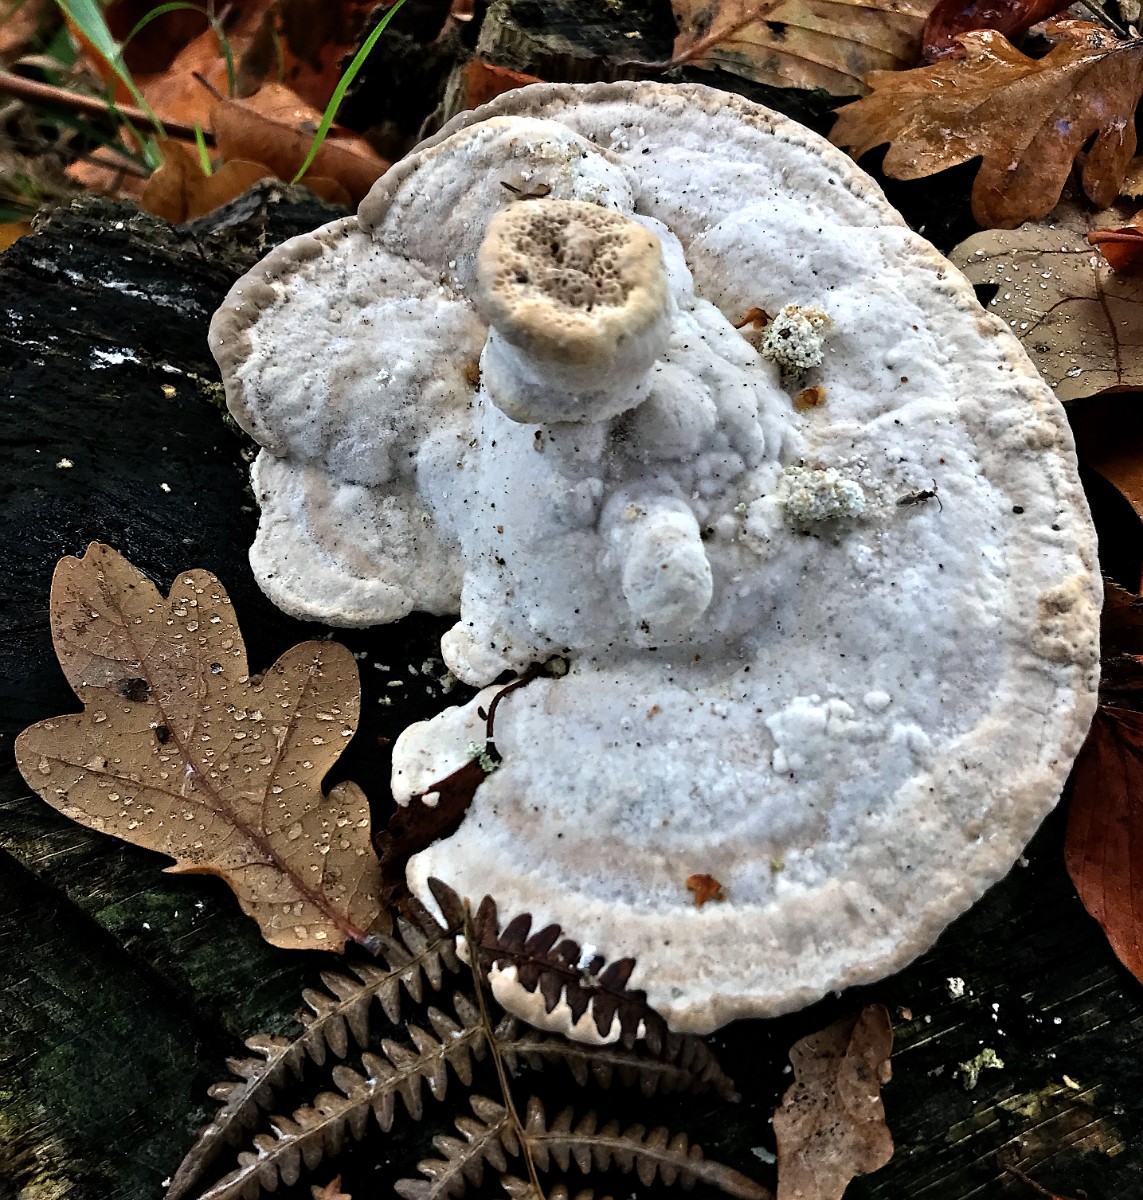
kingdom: Fungi
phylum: Basidiomycota
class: Agaricomycetes
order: Polyporales
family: Polyporaceae
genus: Trametes
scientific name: Trametes gibbosa
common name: puklet læderporesvamp
